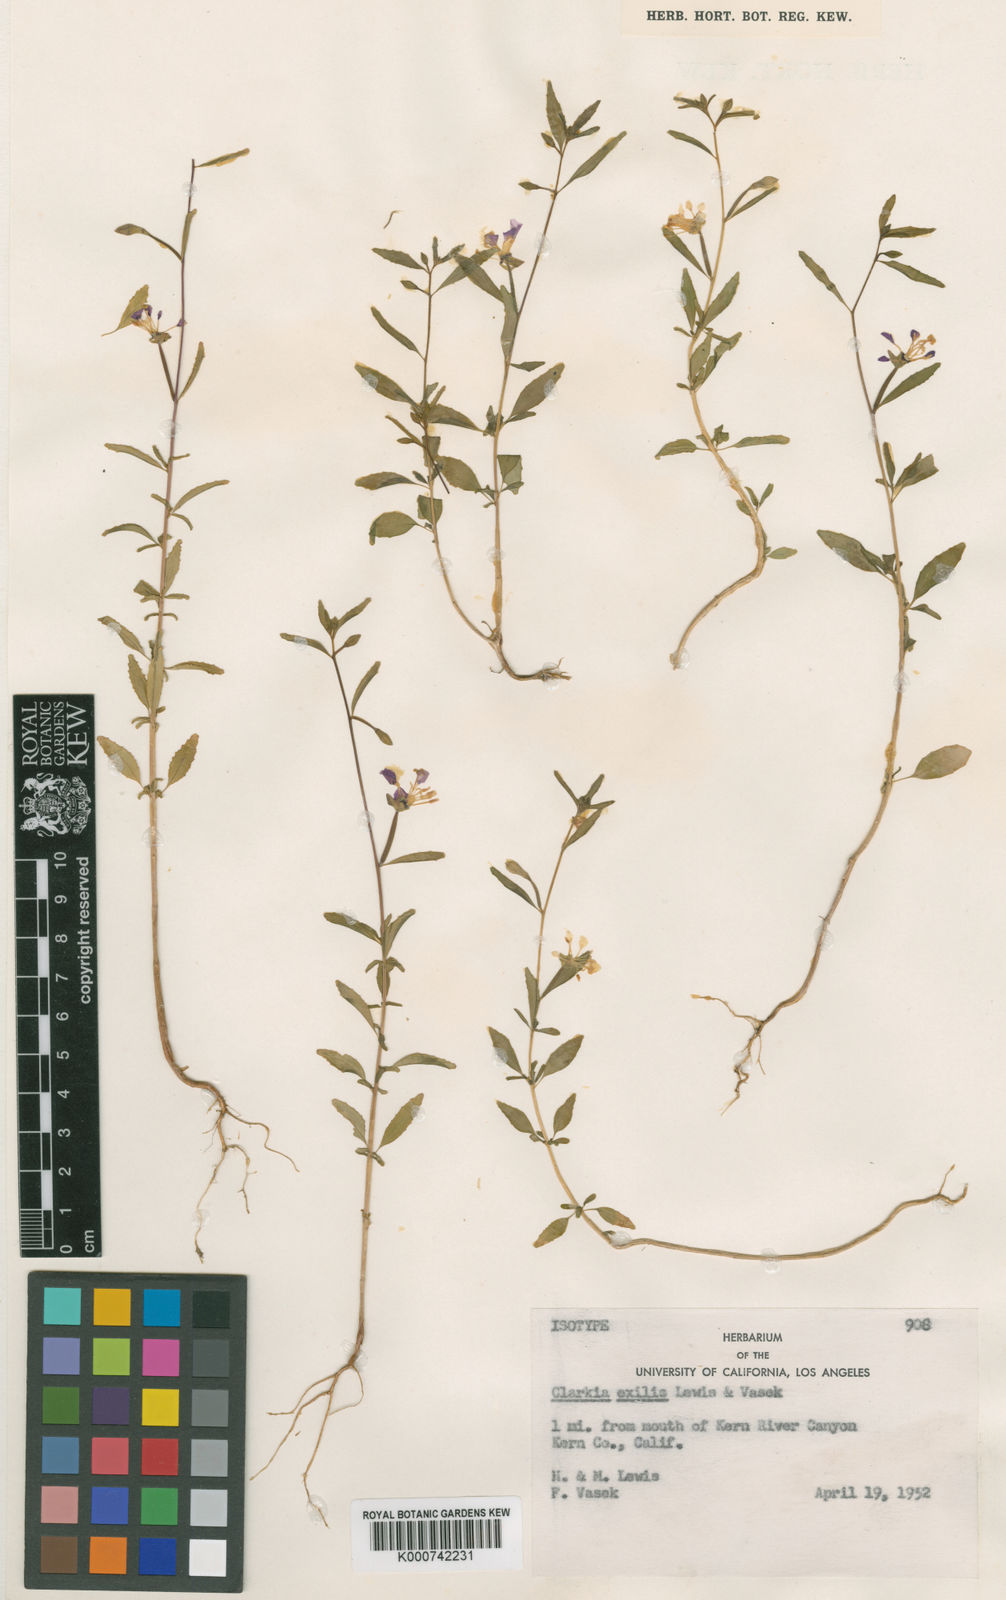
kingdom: Plantae
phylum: Tracheophyta
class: Magnoliopsida
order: Myrtales
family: Onagraceae
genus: Clarkia
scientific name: Clarkia exilis
